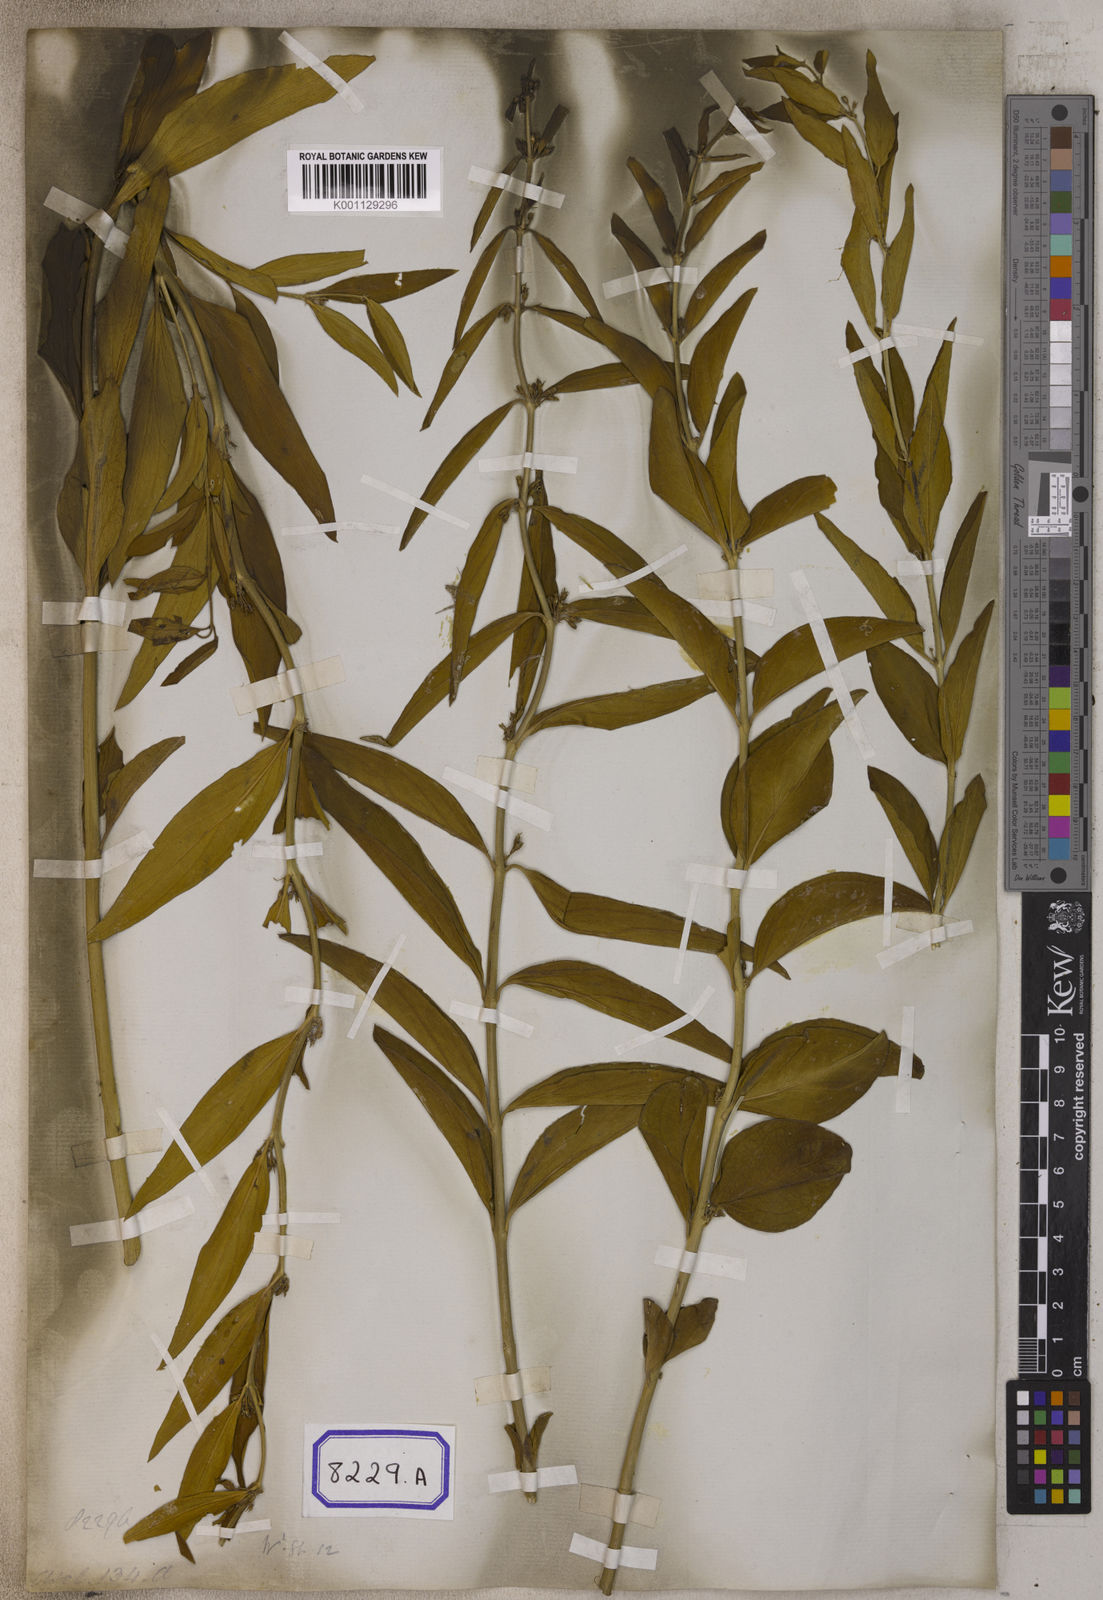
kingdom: Plantae
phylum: Tracheophyta
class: Magnoliopsida
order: Gentianales
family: Apocynaceae
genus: Cynanchum
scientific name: Cynanchum
